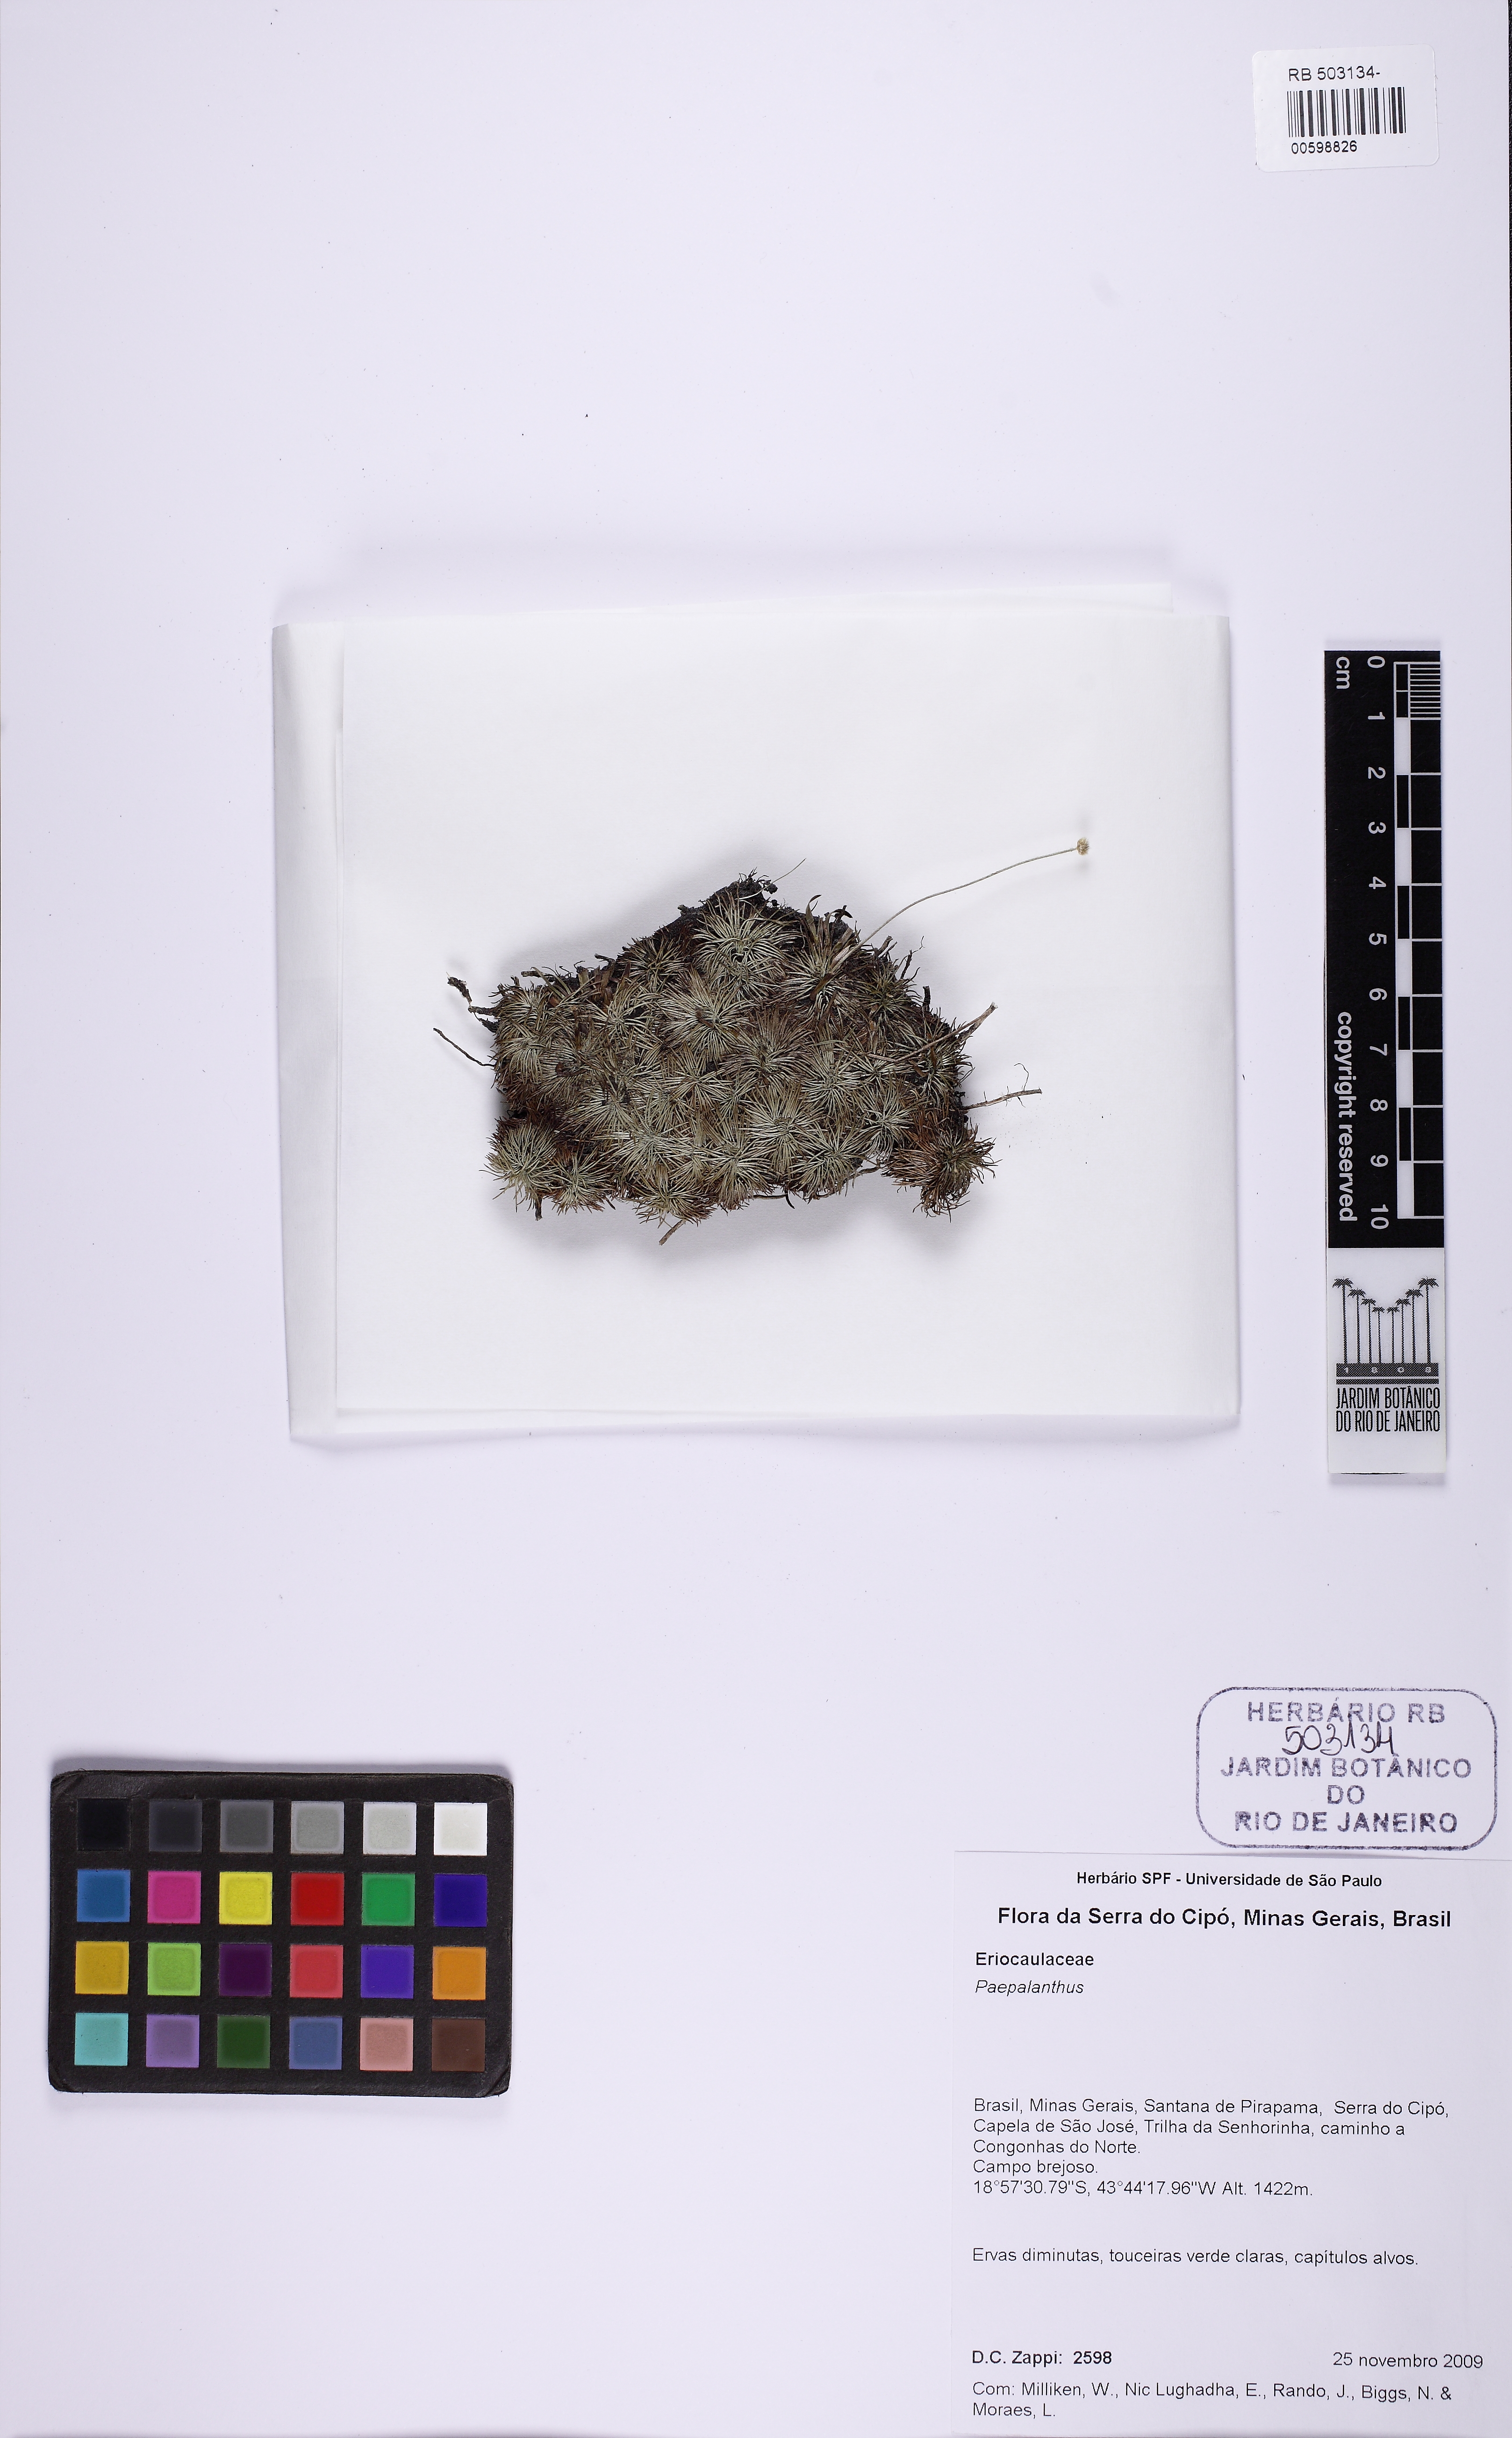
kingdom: Plantae
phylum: Tracheophyta
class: Liliopsida
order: Poales
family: Eriocaulaceae
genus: Paepalanthus
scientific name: Paepalanthus albidus
